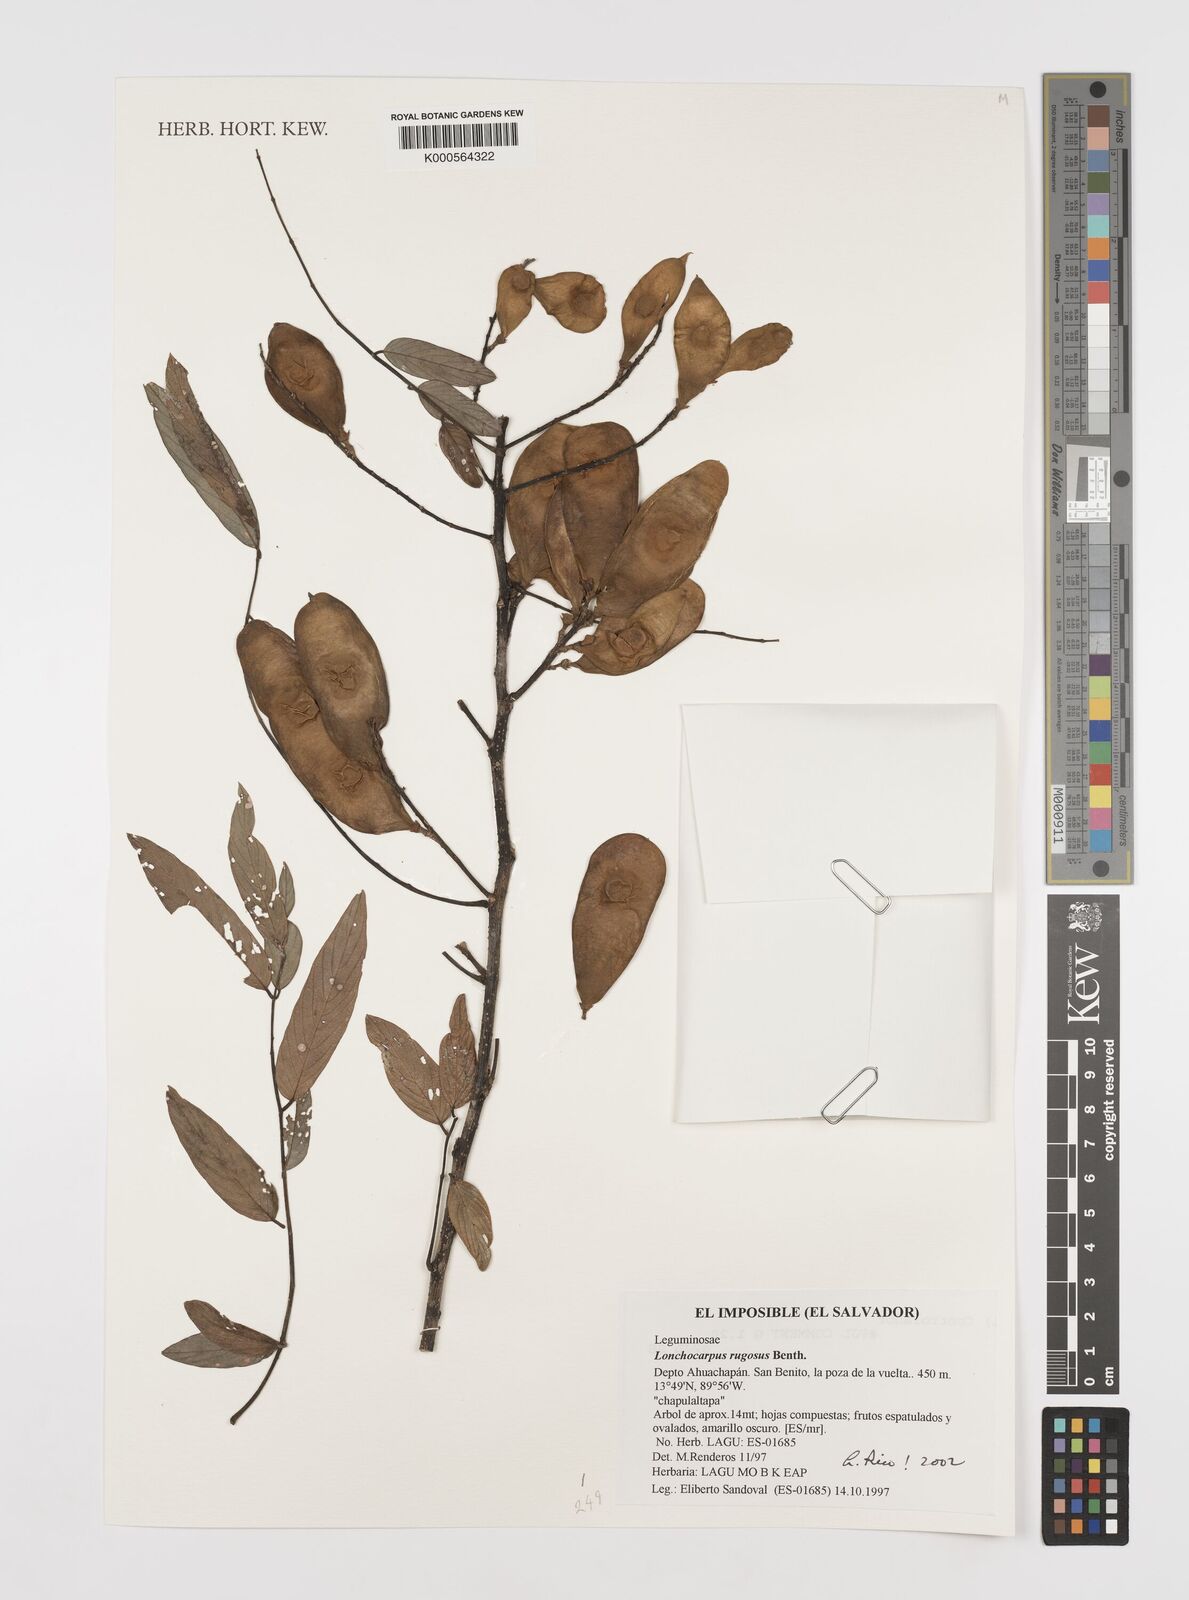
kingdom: Plantae
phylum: Tracheophyta
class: Magnoliopsida
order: Fabales
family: Fabaceae
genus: Lonchocarpus
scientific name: Lonchocarpus rugosus
